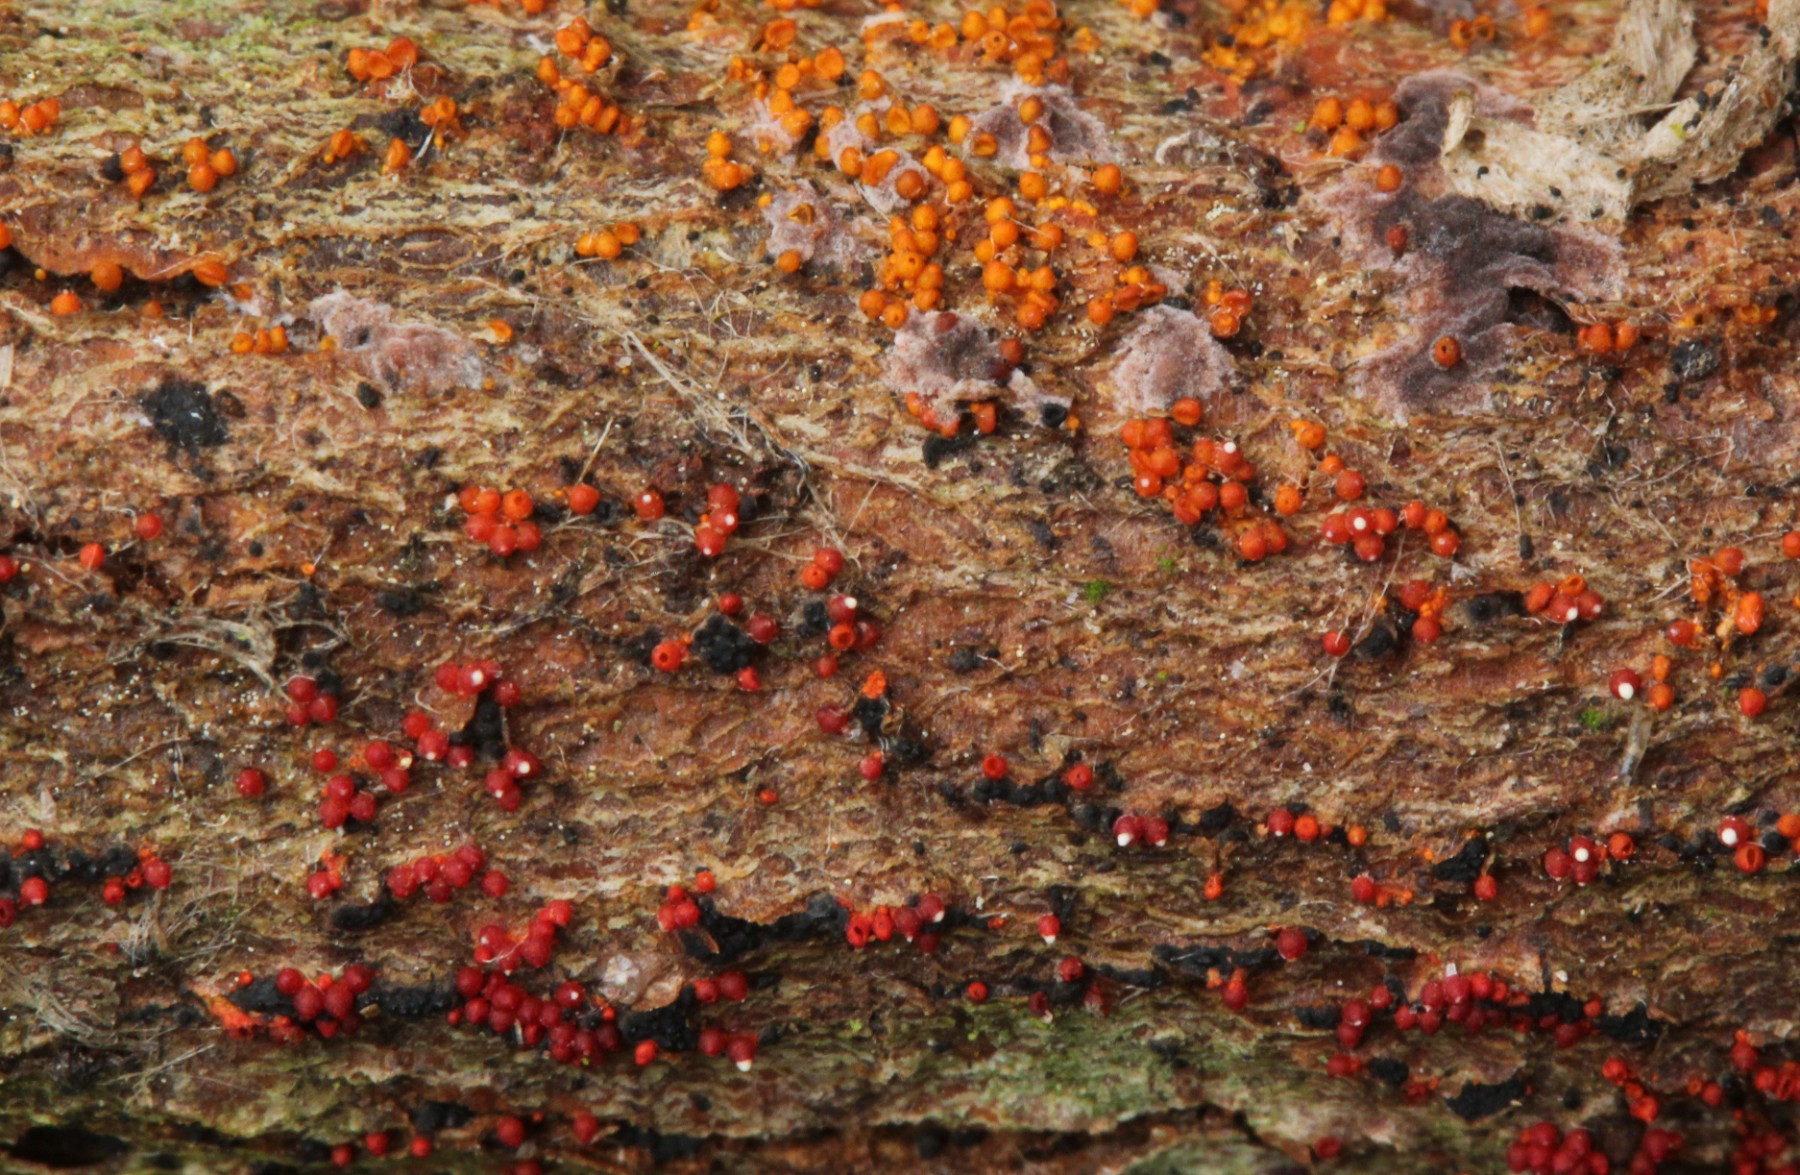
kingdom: Fungi
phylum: Ascomycota
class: Sordariomycetes
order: Hypocreales
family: Nectriaceae
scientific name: Nectriaceae
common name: cinnobersvampfamilien
